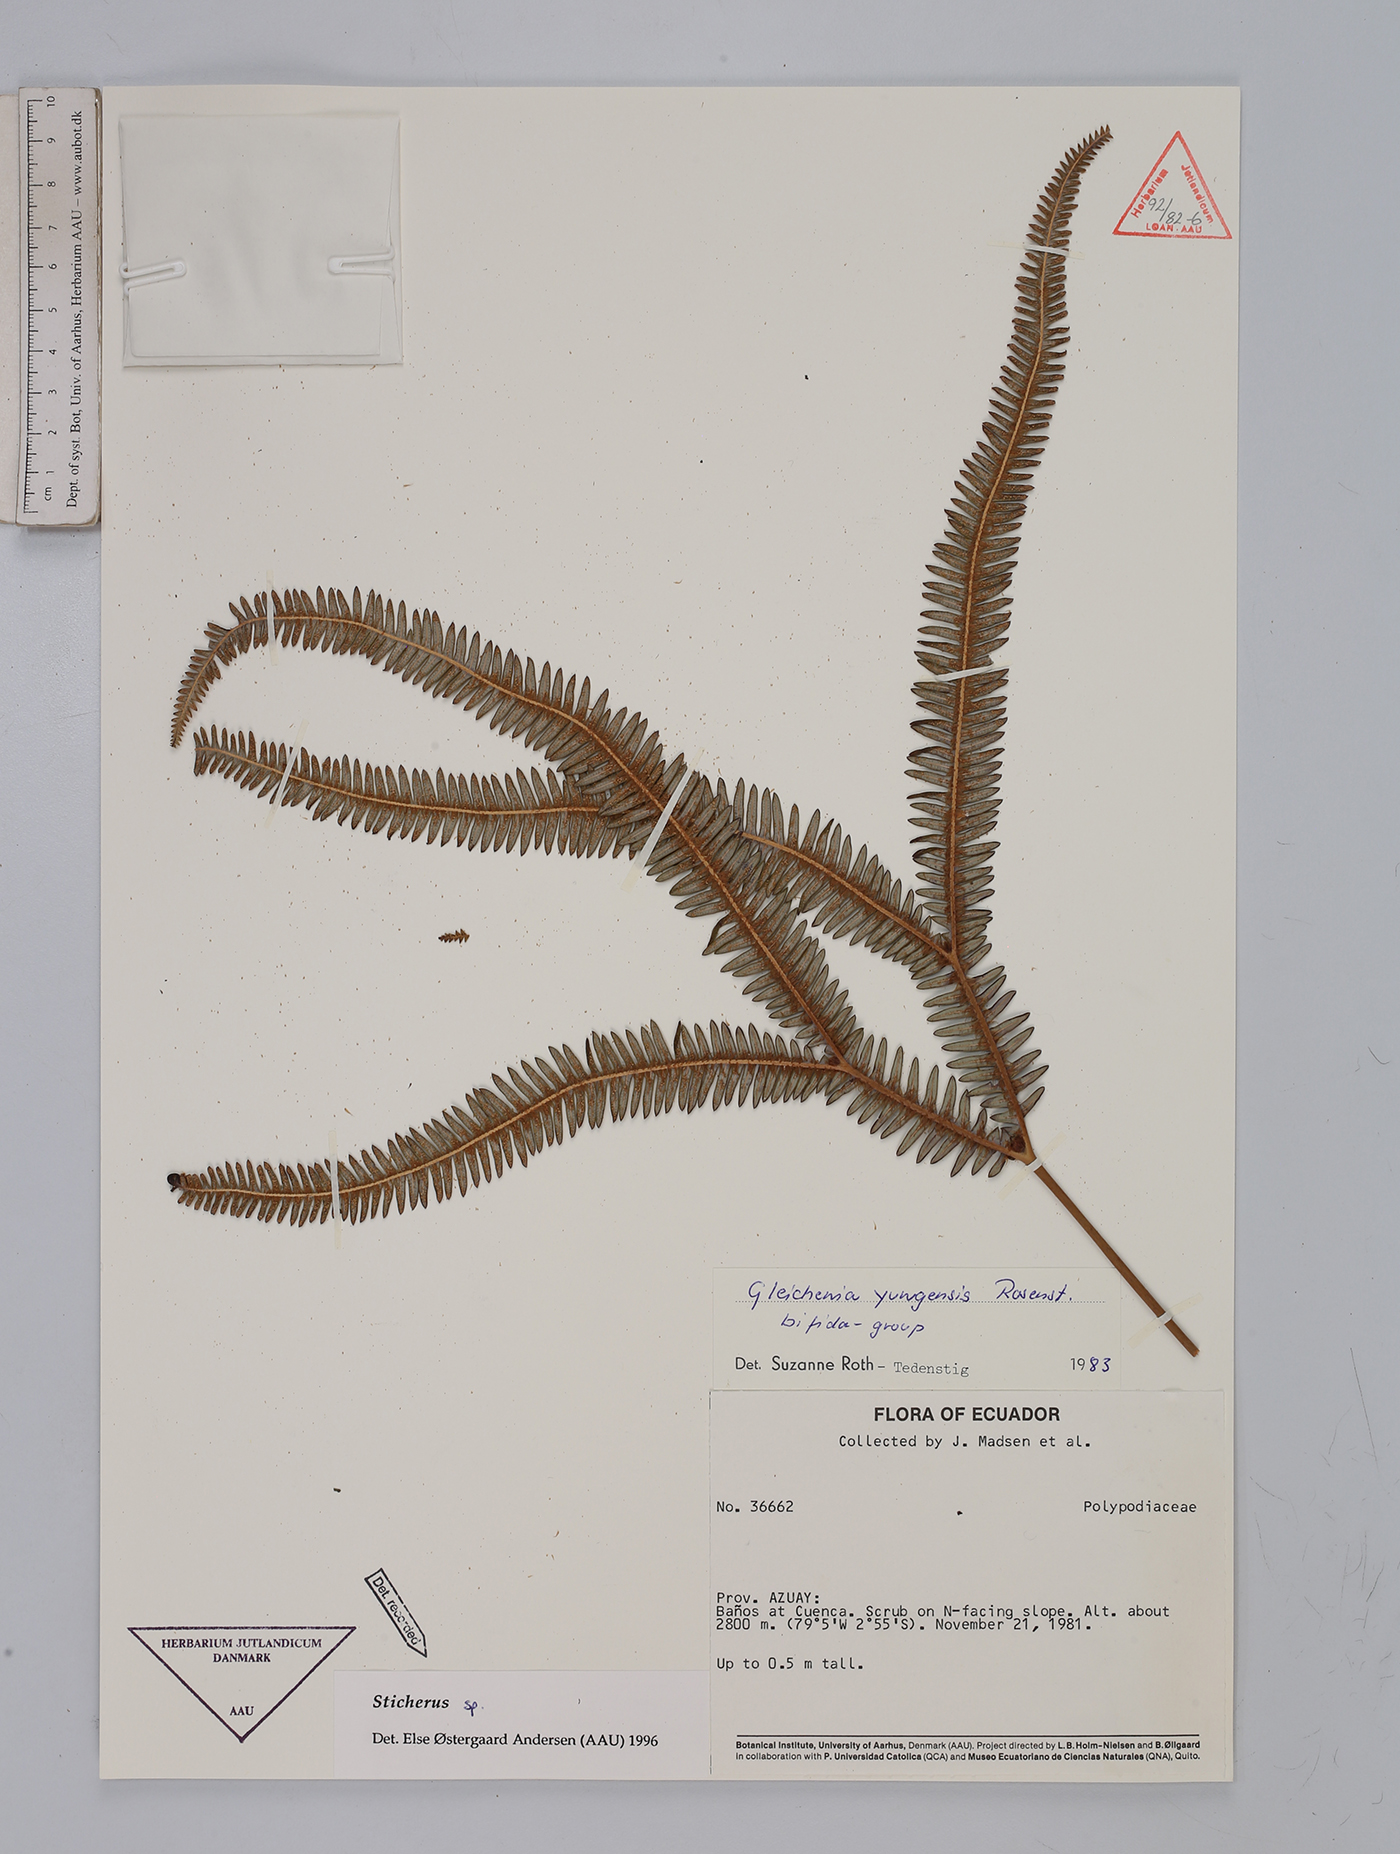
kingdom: Plantae
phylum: Tracheophyta
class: Polypodiopsida
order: Gleicheniales
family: Gleicheniaceae
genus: Sticherus
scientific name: Sticherus
